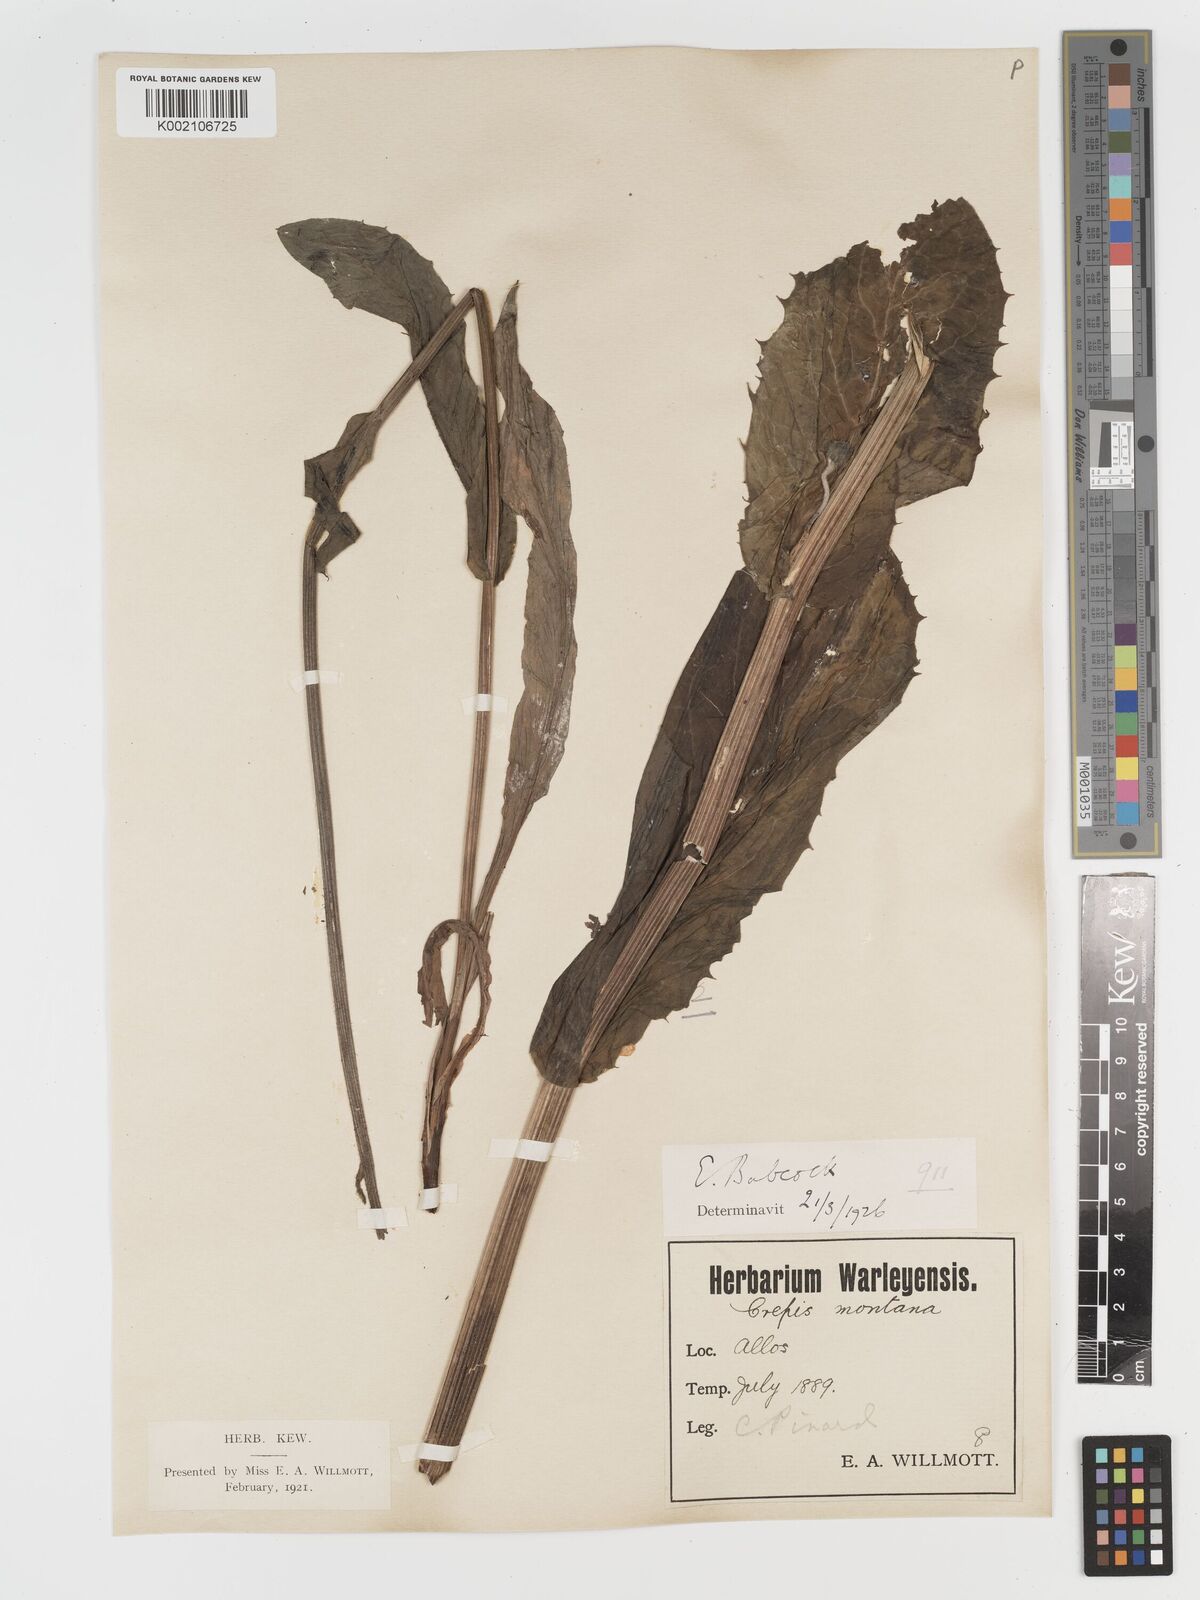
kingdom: Plantae
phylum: Tracheophyta
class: Magnoliopsida
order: Asterales
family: Asteraceae
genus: Crepis
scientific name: Crepis pontana
